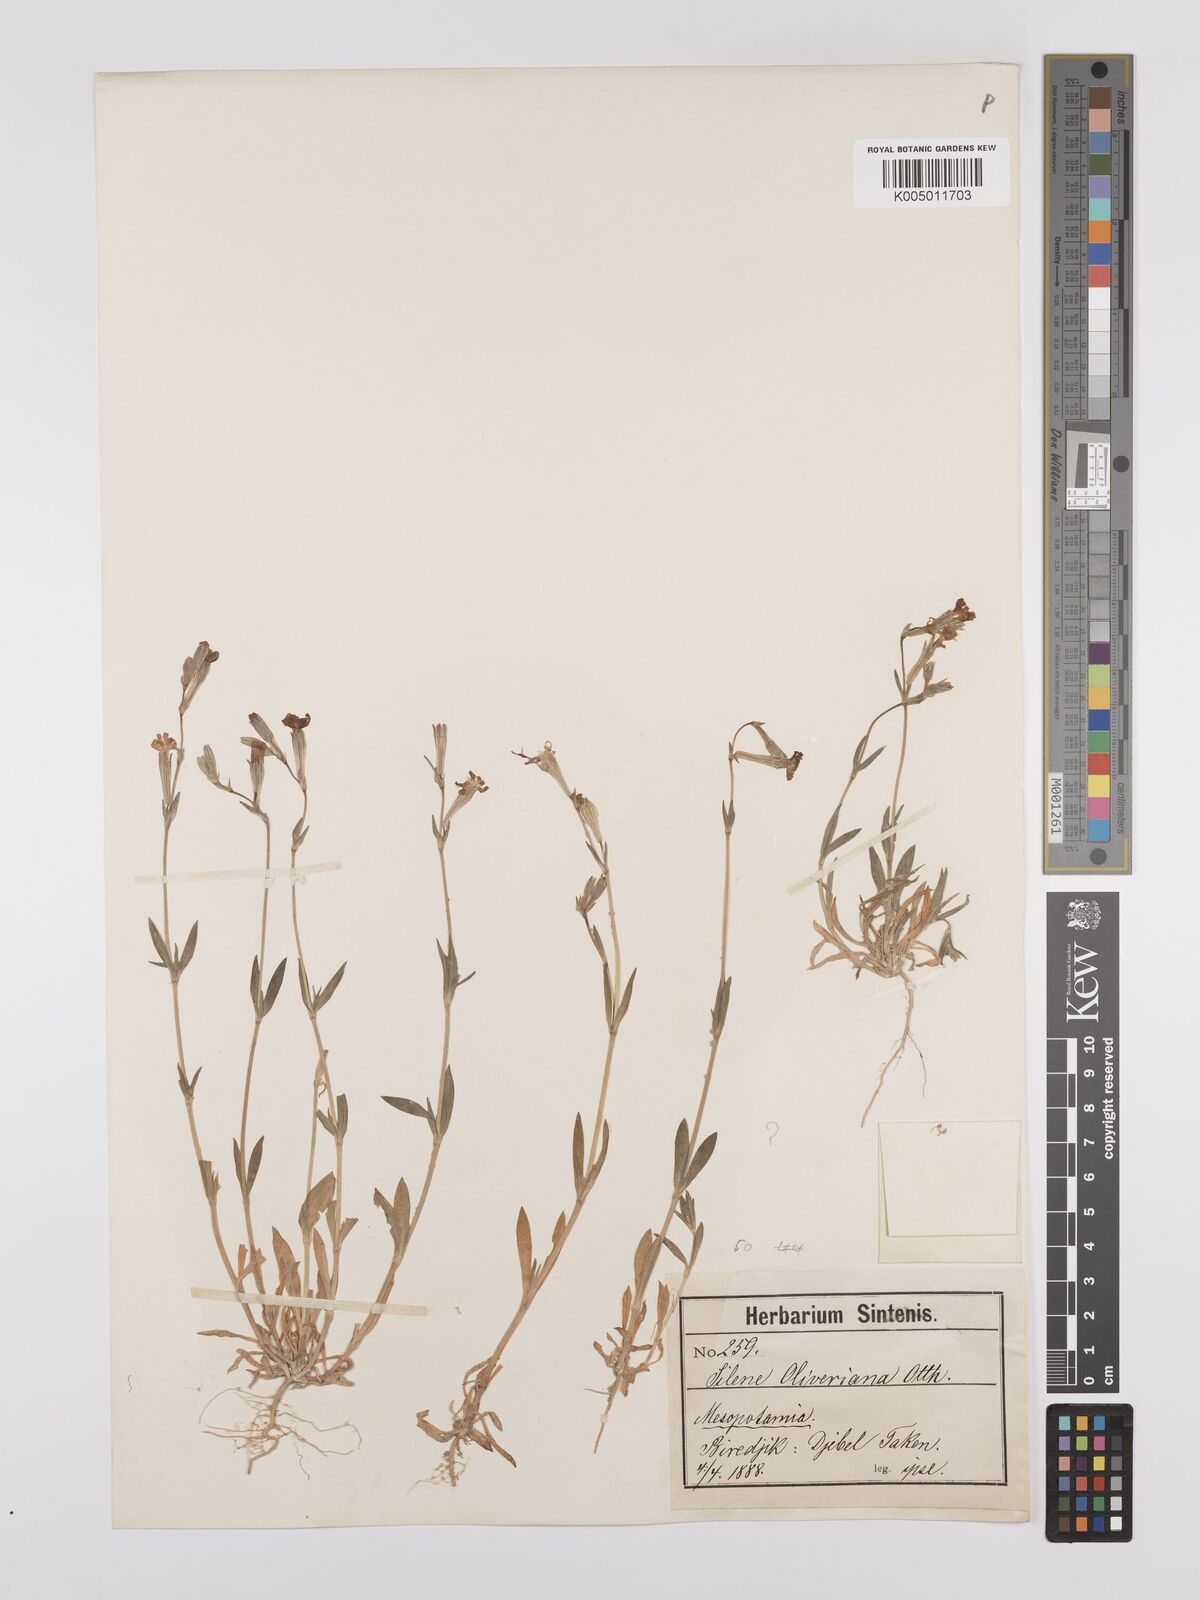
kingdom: Plantae
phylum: Tracheophyta
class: Magnoliopsida
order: Caryophyllales
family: Caryophyllaceae
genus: Silene
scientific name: Silene oliveriana
